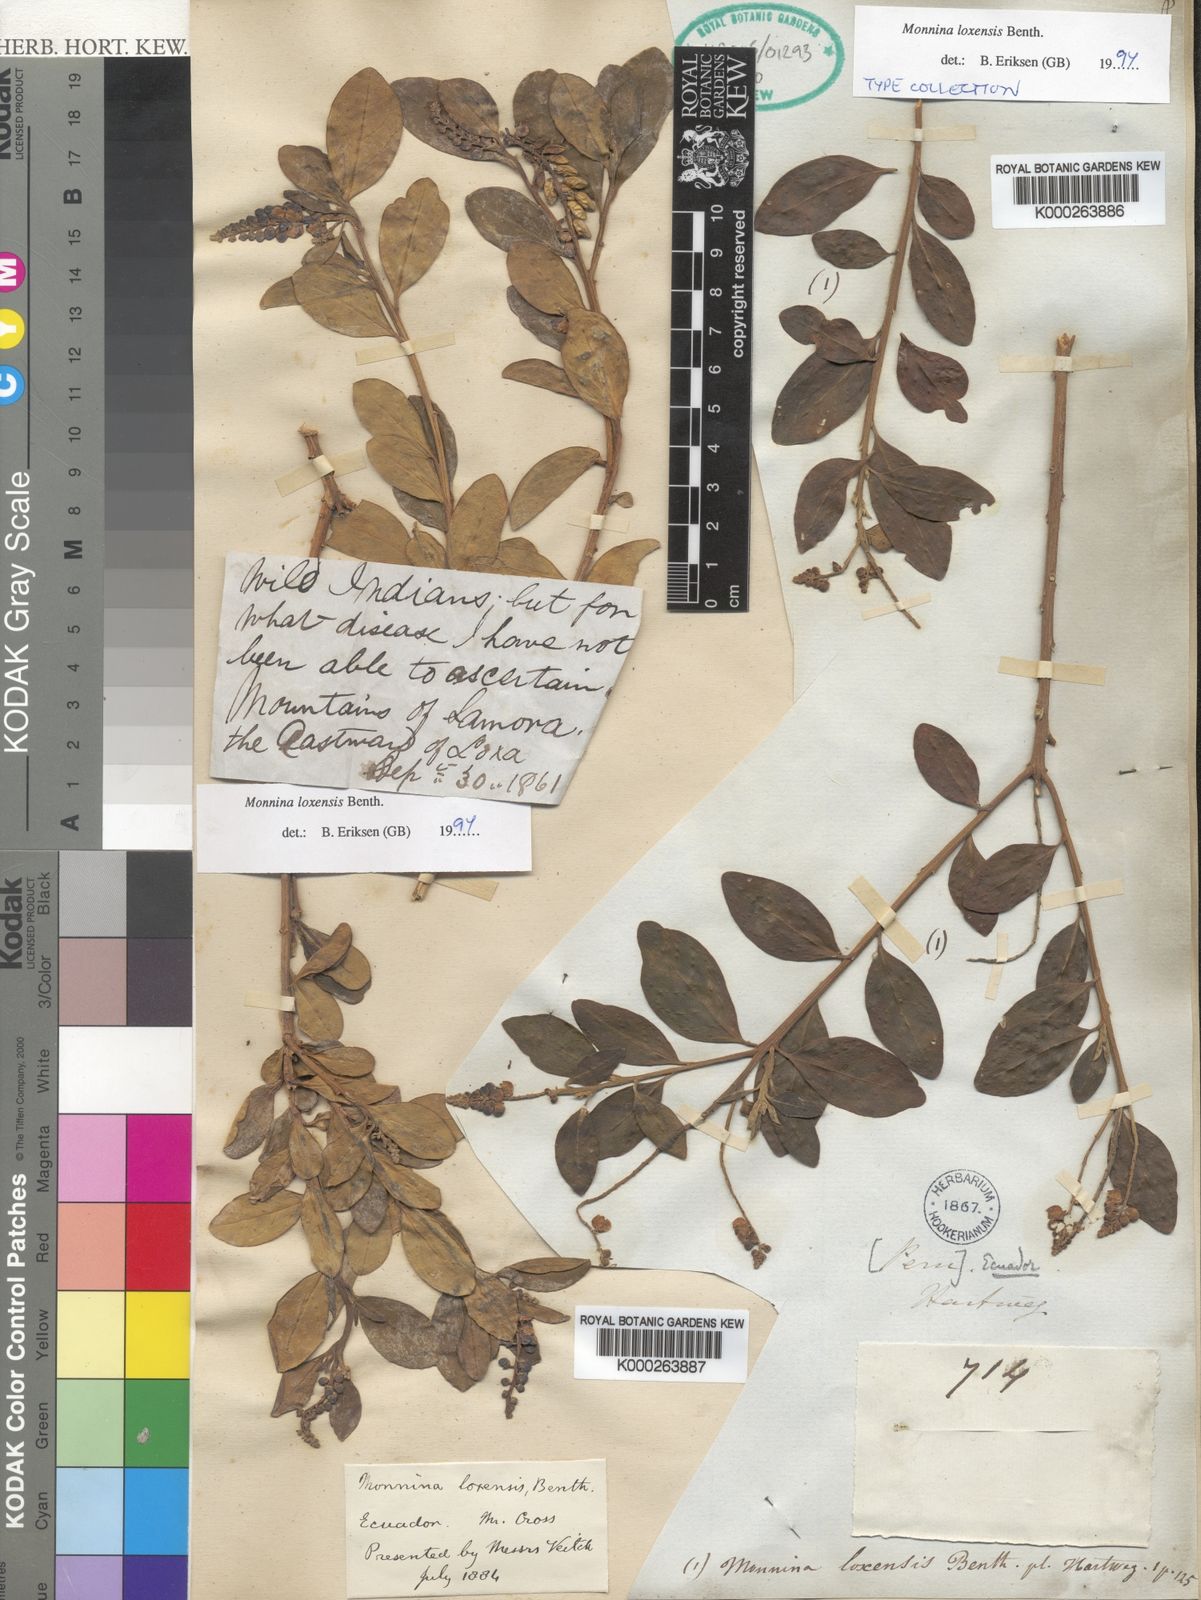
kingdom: Plantae
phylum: Tracheophyta
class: Magnoliopsida
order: Fabales
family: Polygalaceae
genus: Monnina
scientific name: Monnina loxensis
